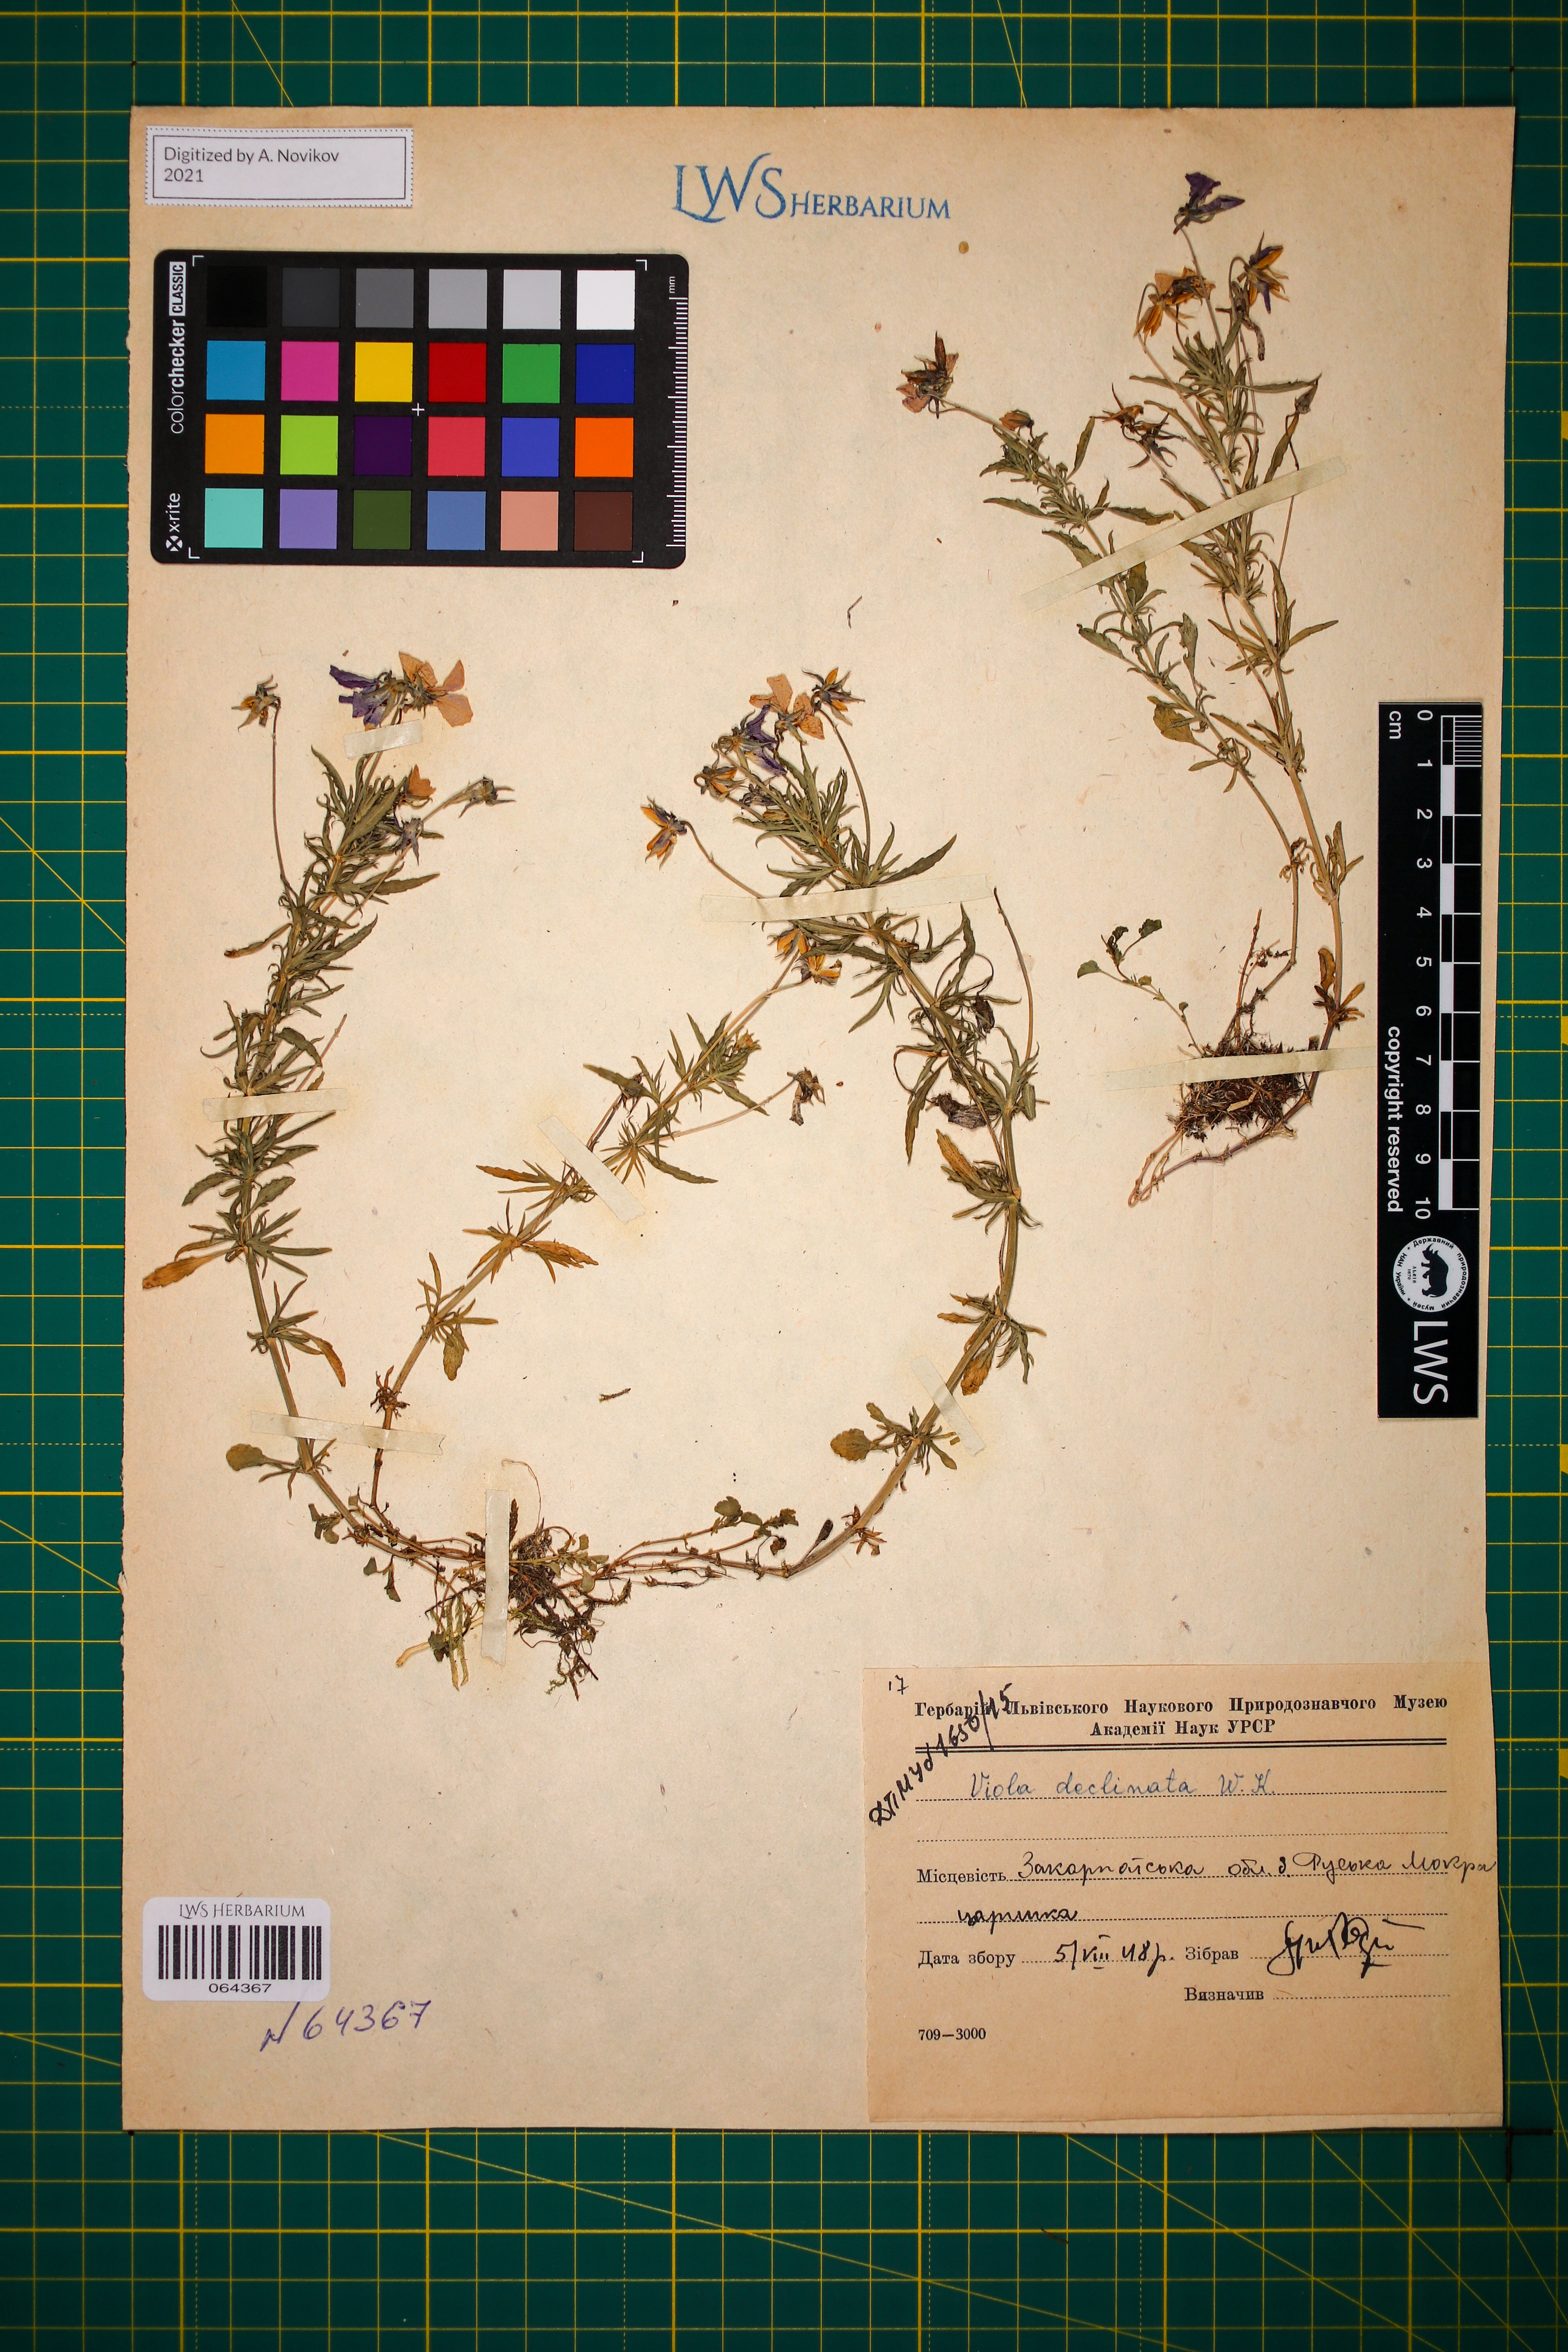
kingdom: Plantae
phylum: Tracheophyta
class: Magnoliopsida
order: Malpighiales
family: Violaceae
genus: Viola
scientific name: Viola declinata
